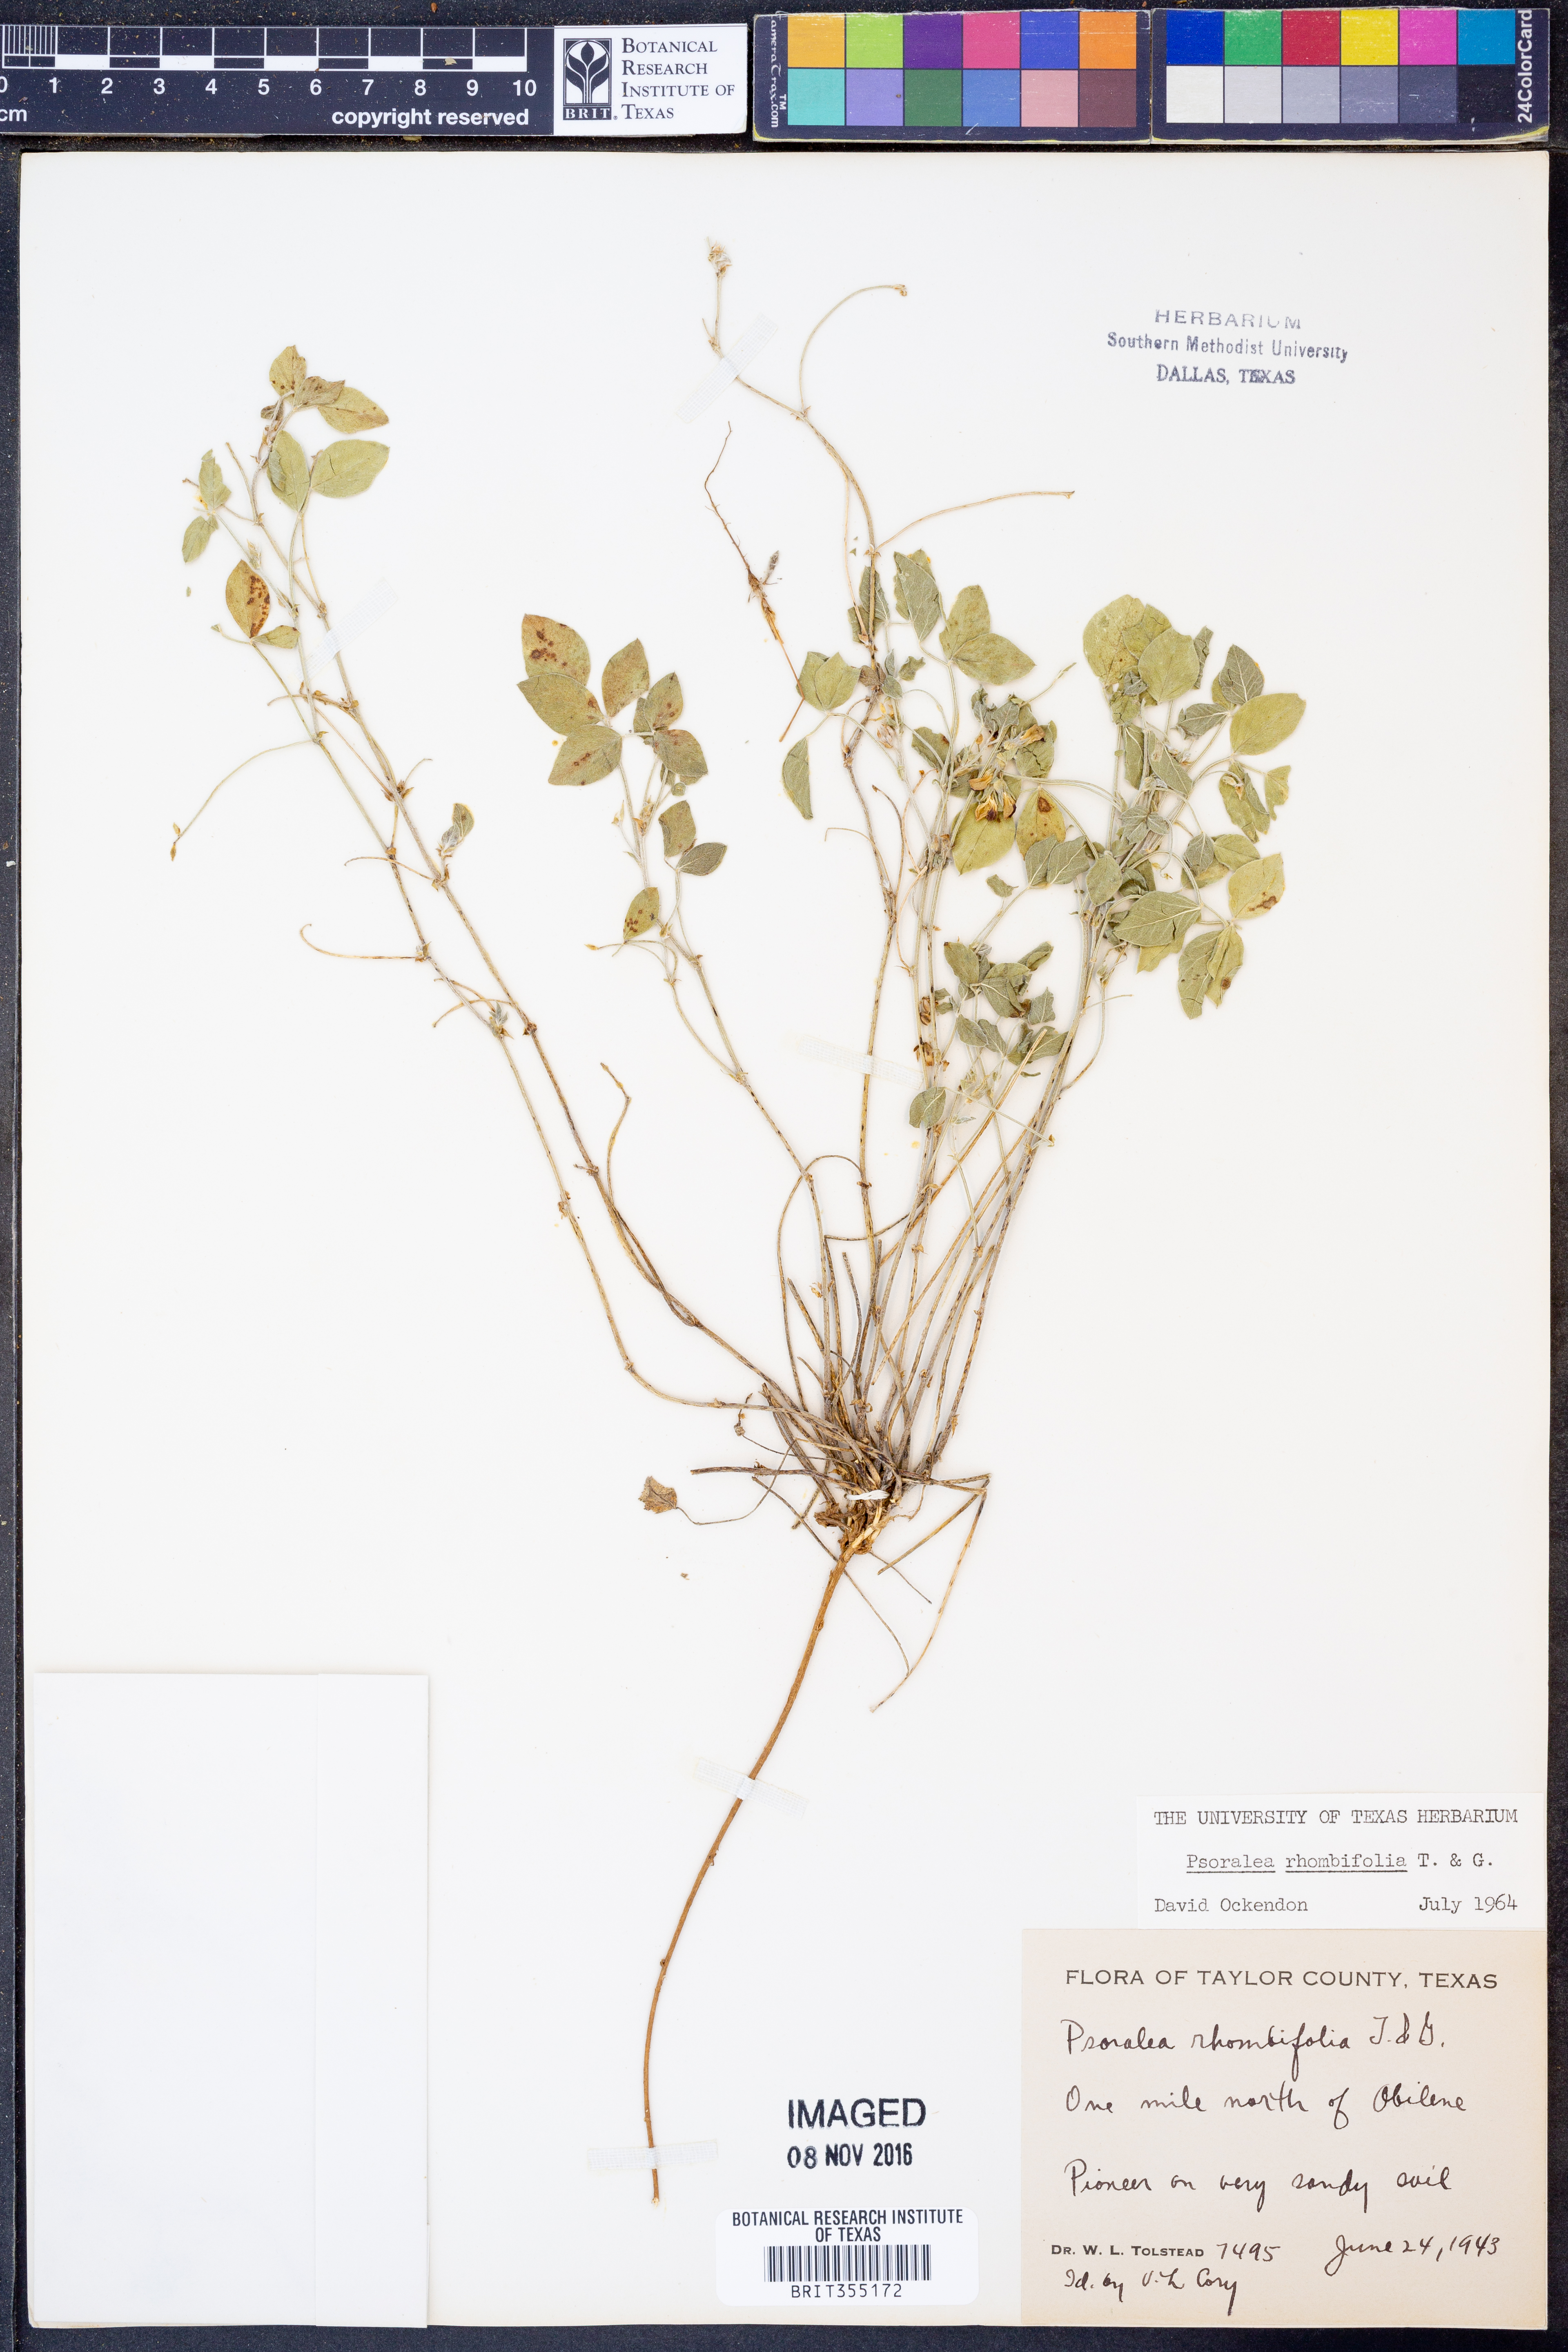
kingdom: Plantae
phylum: Tracheophyta
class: Magnoliopsida
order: Fabales
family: Fabaceae
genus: Pediomelum
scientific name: Pediomelum rhombifolium
